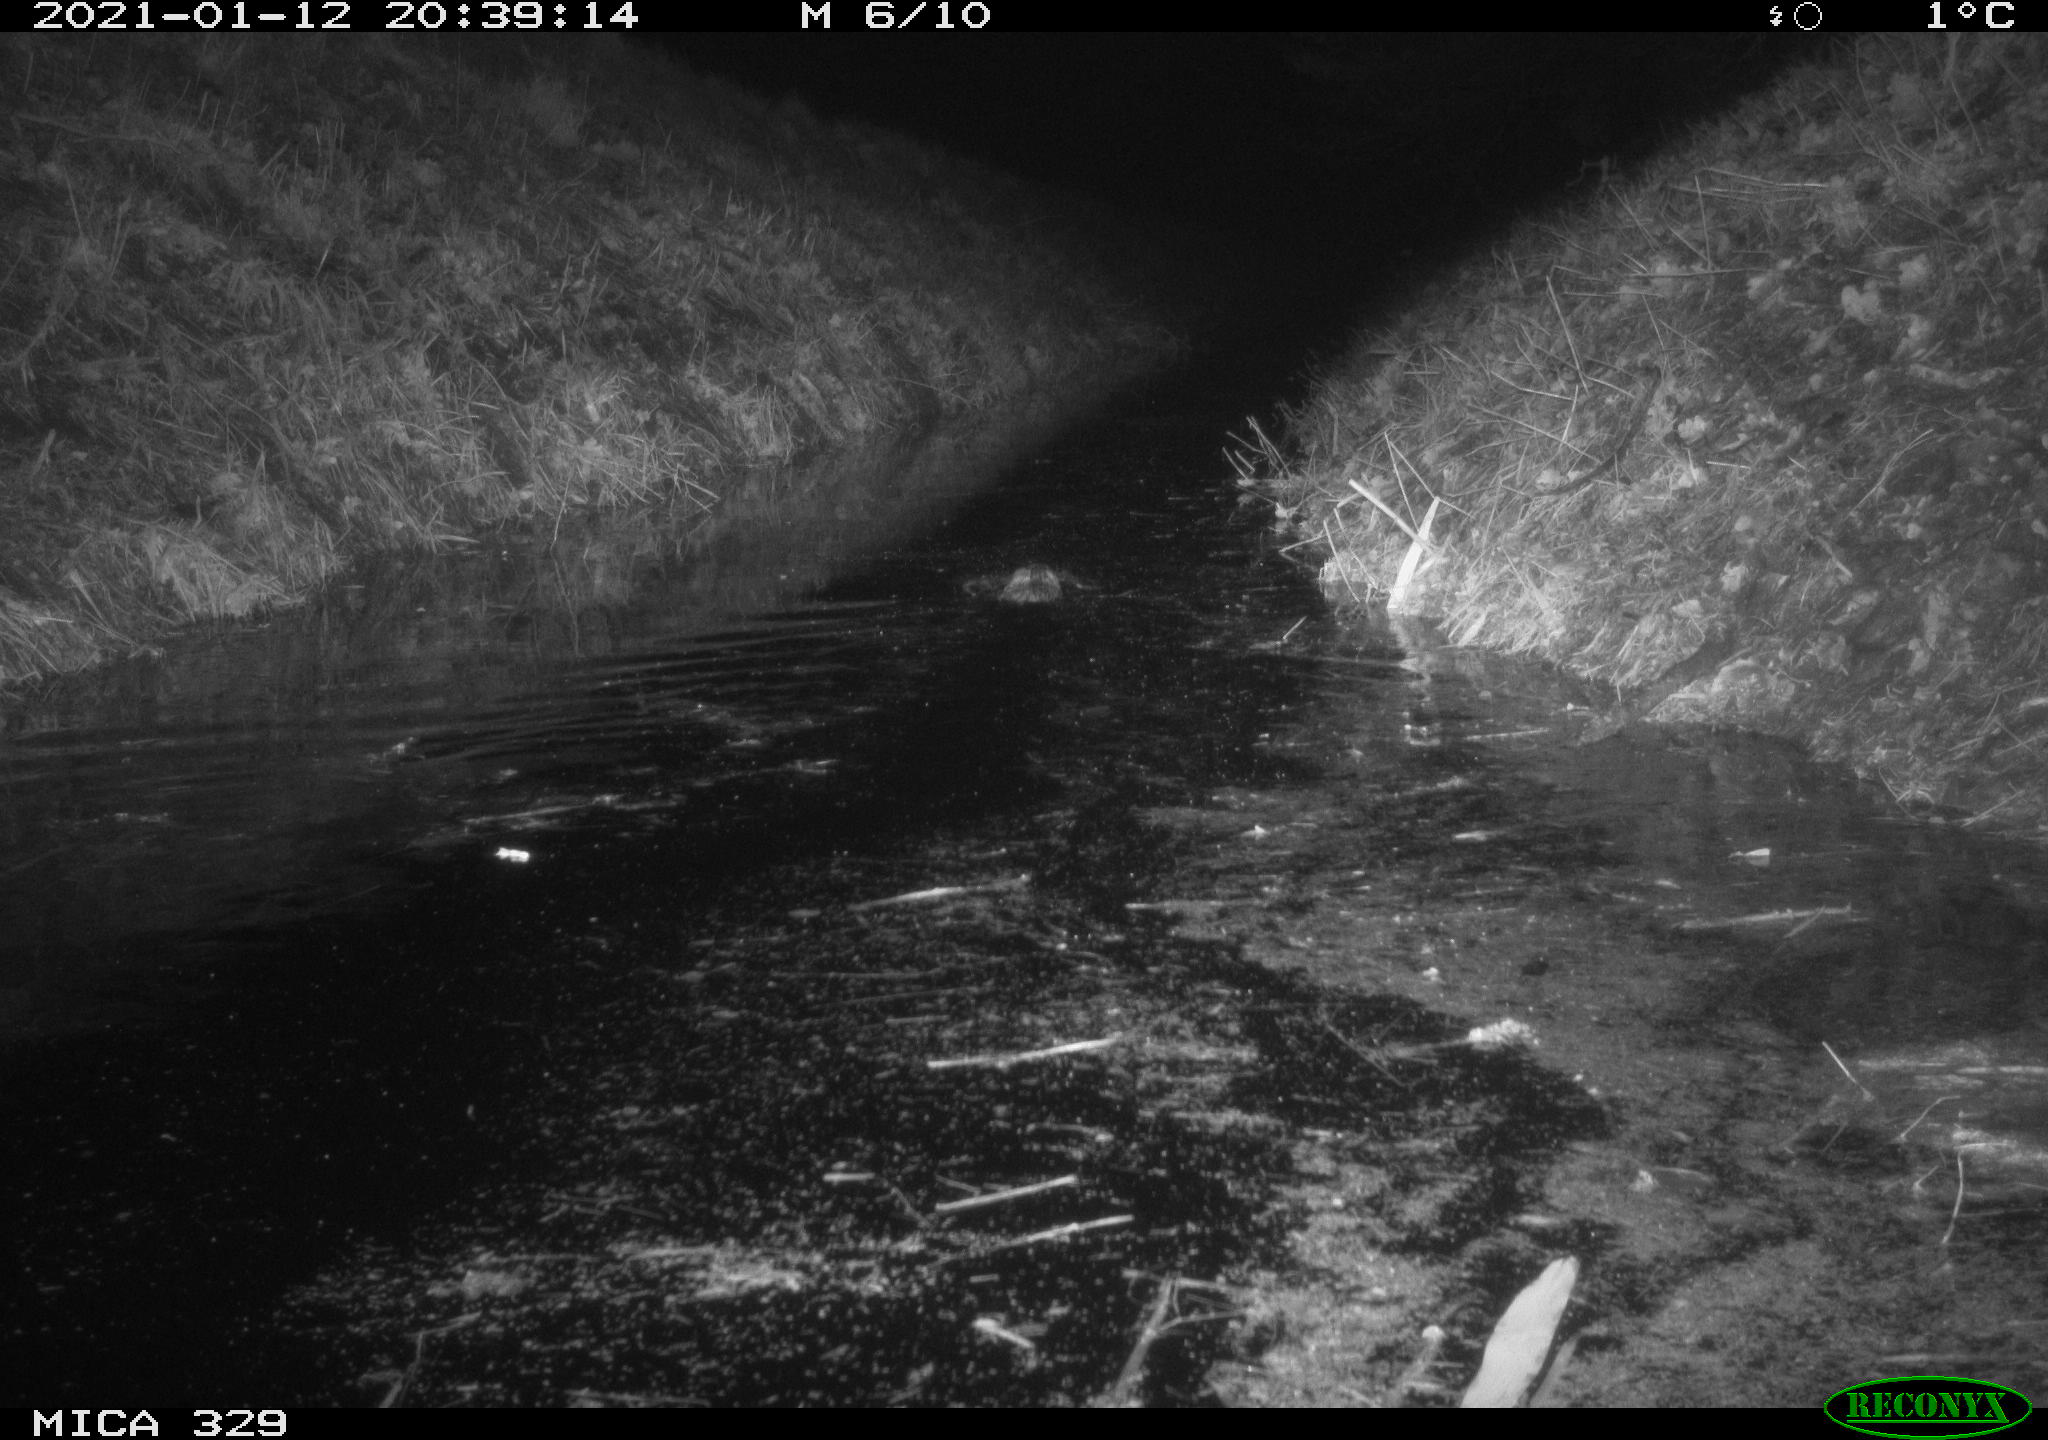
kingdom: Animalia
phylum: Chordata
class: Mammalia
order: Rodentia
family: Cricetidae
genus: Ondatra
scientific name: Ondatra zibethicus
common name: Muskrat
